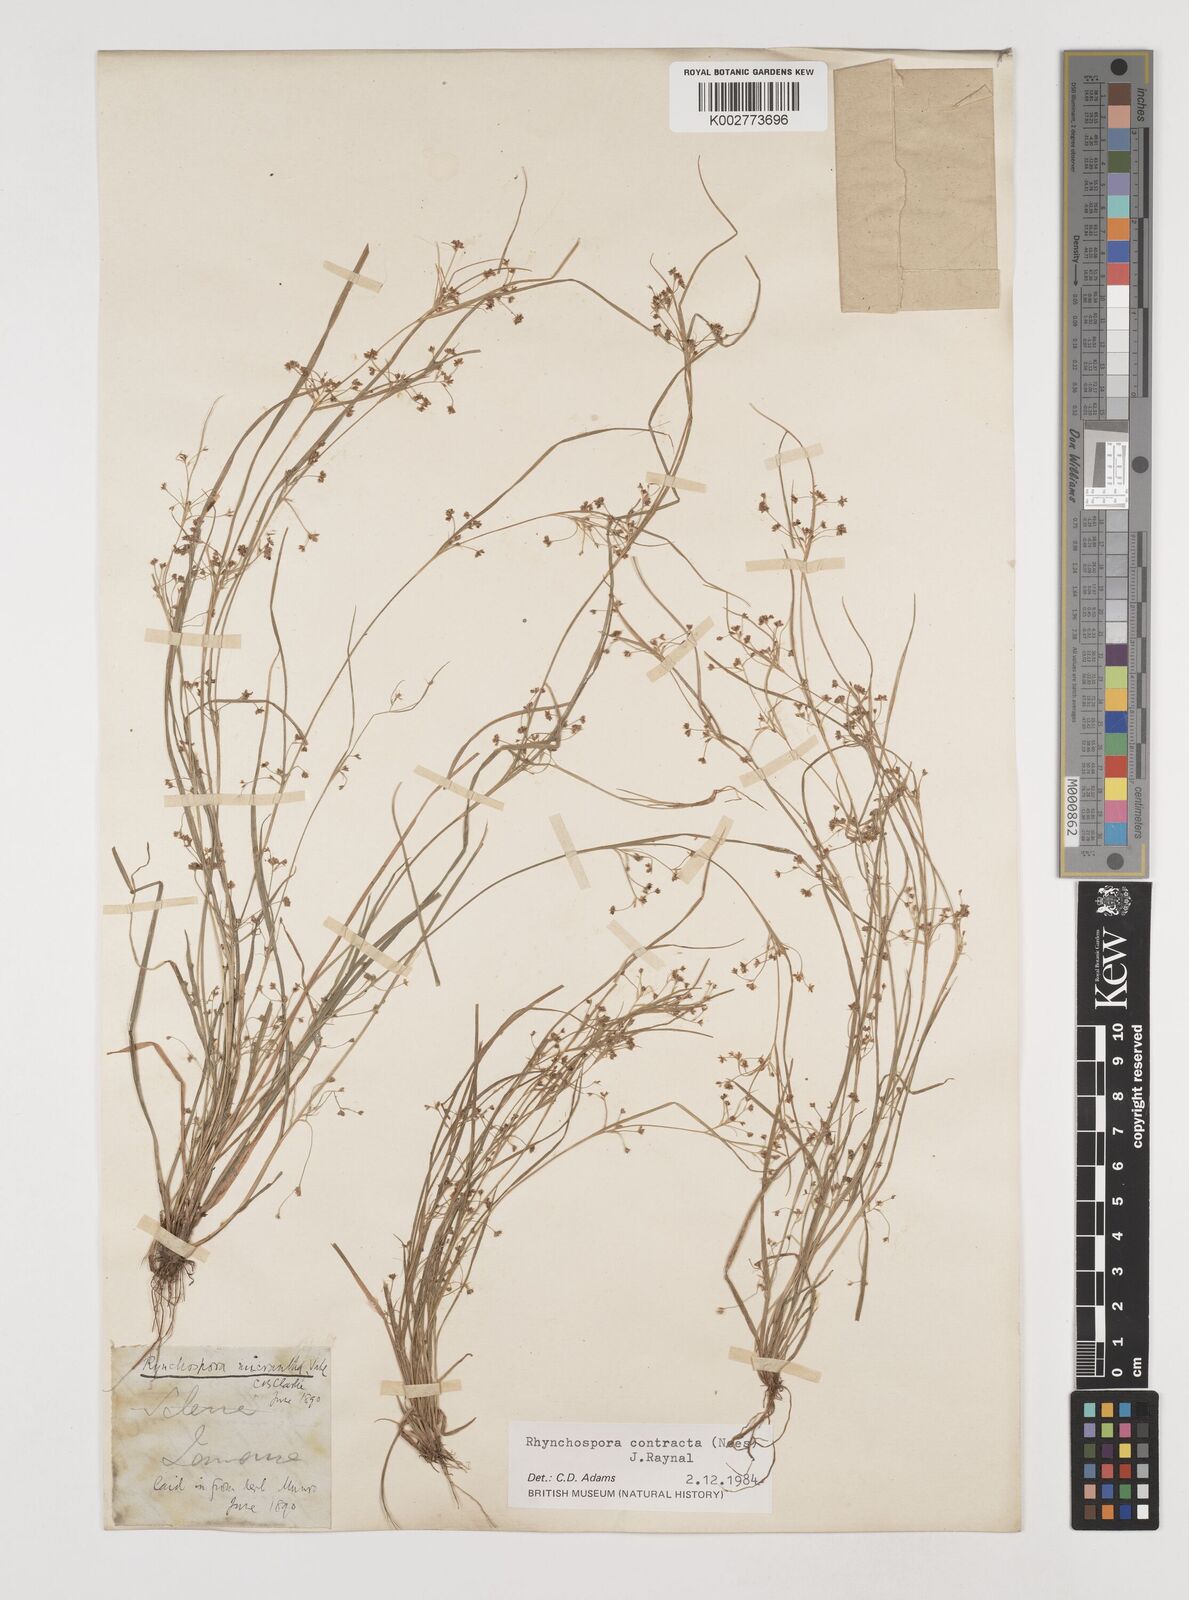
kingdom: Plantae
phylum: Tracheophyta
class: Liliopsida
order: Poales
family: Cyperaceae
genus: Rhynchospora
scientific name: Rhynchospora contracta
